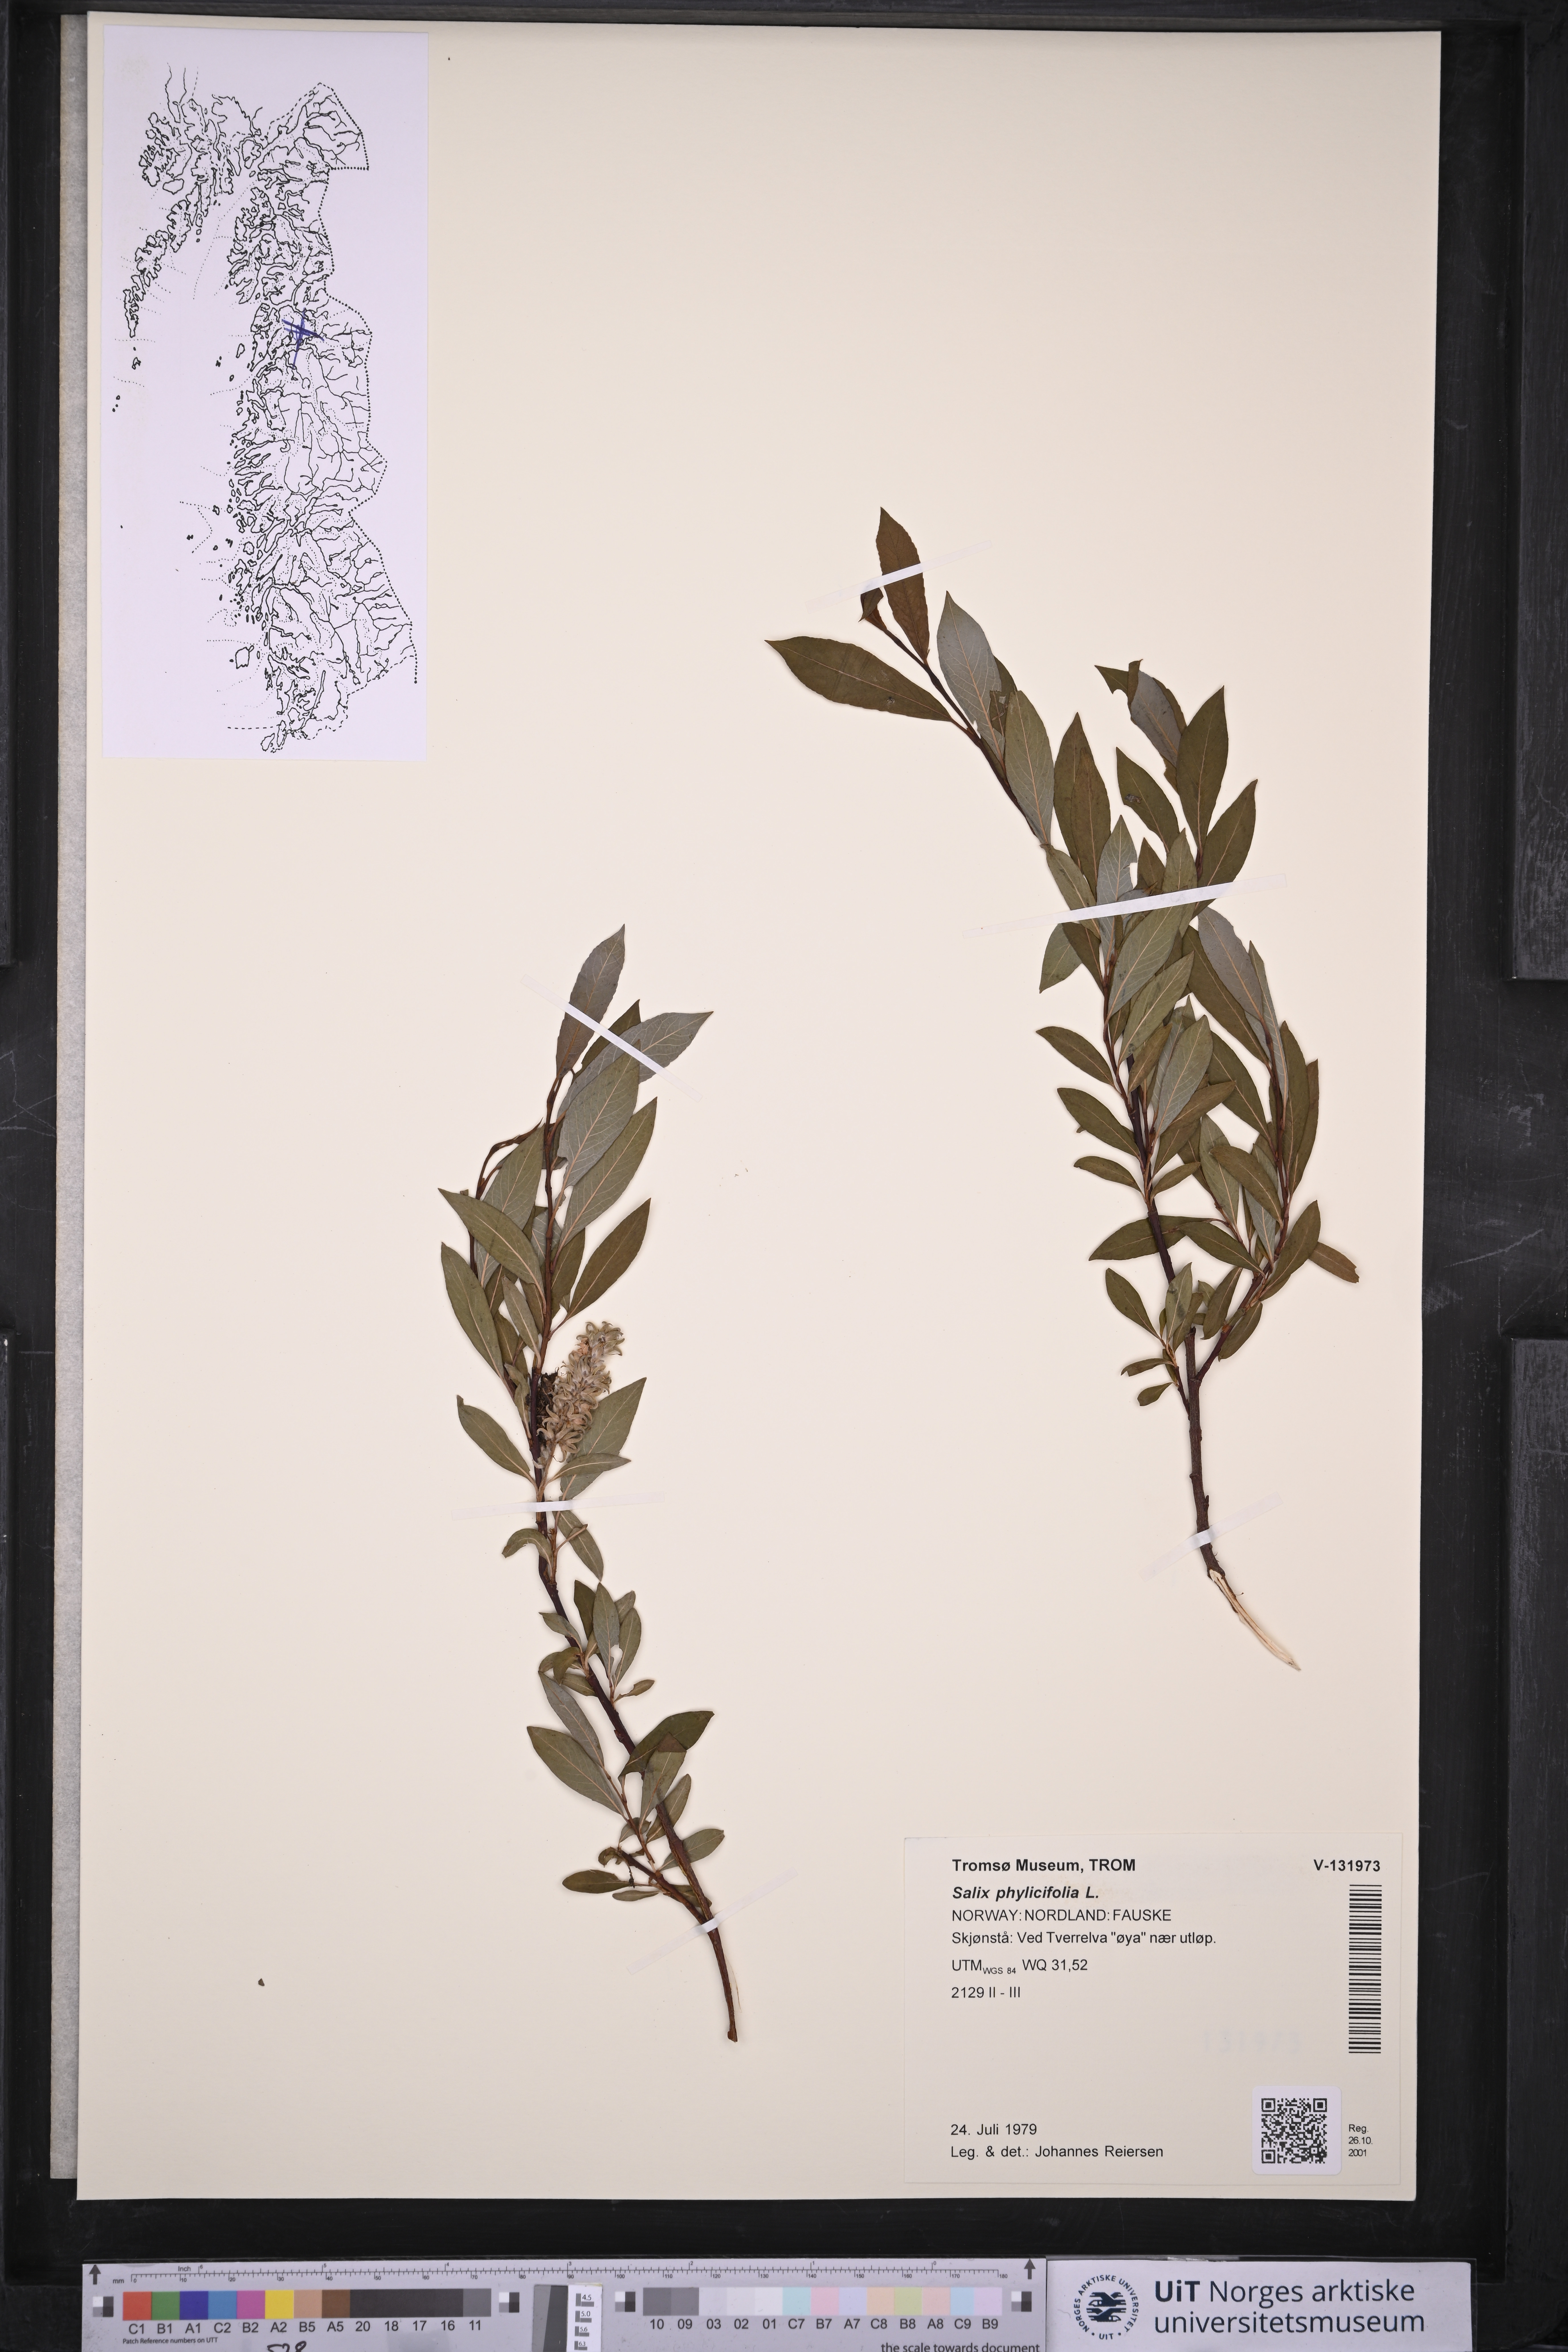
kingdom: Plantae
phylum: Tracheophyta
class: Magnoliopsida
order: Malpighiales
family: Salicaceae
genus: Salix
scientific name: Salix phylicifolia
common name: Tea-leaved willow
